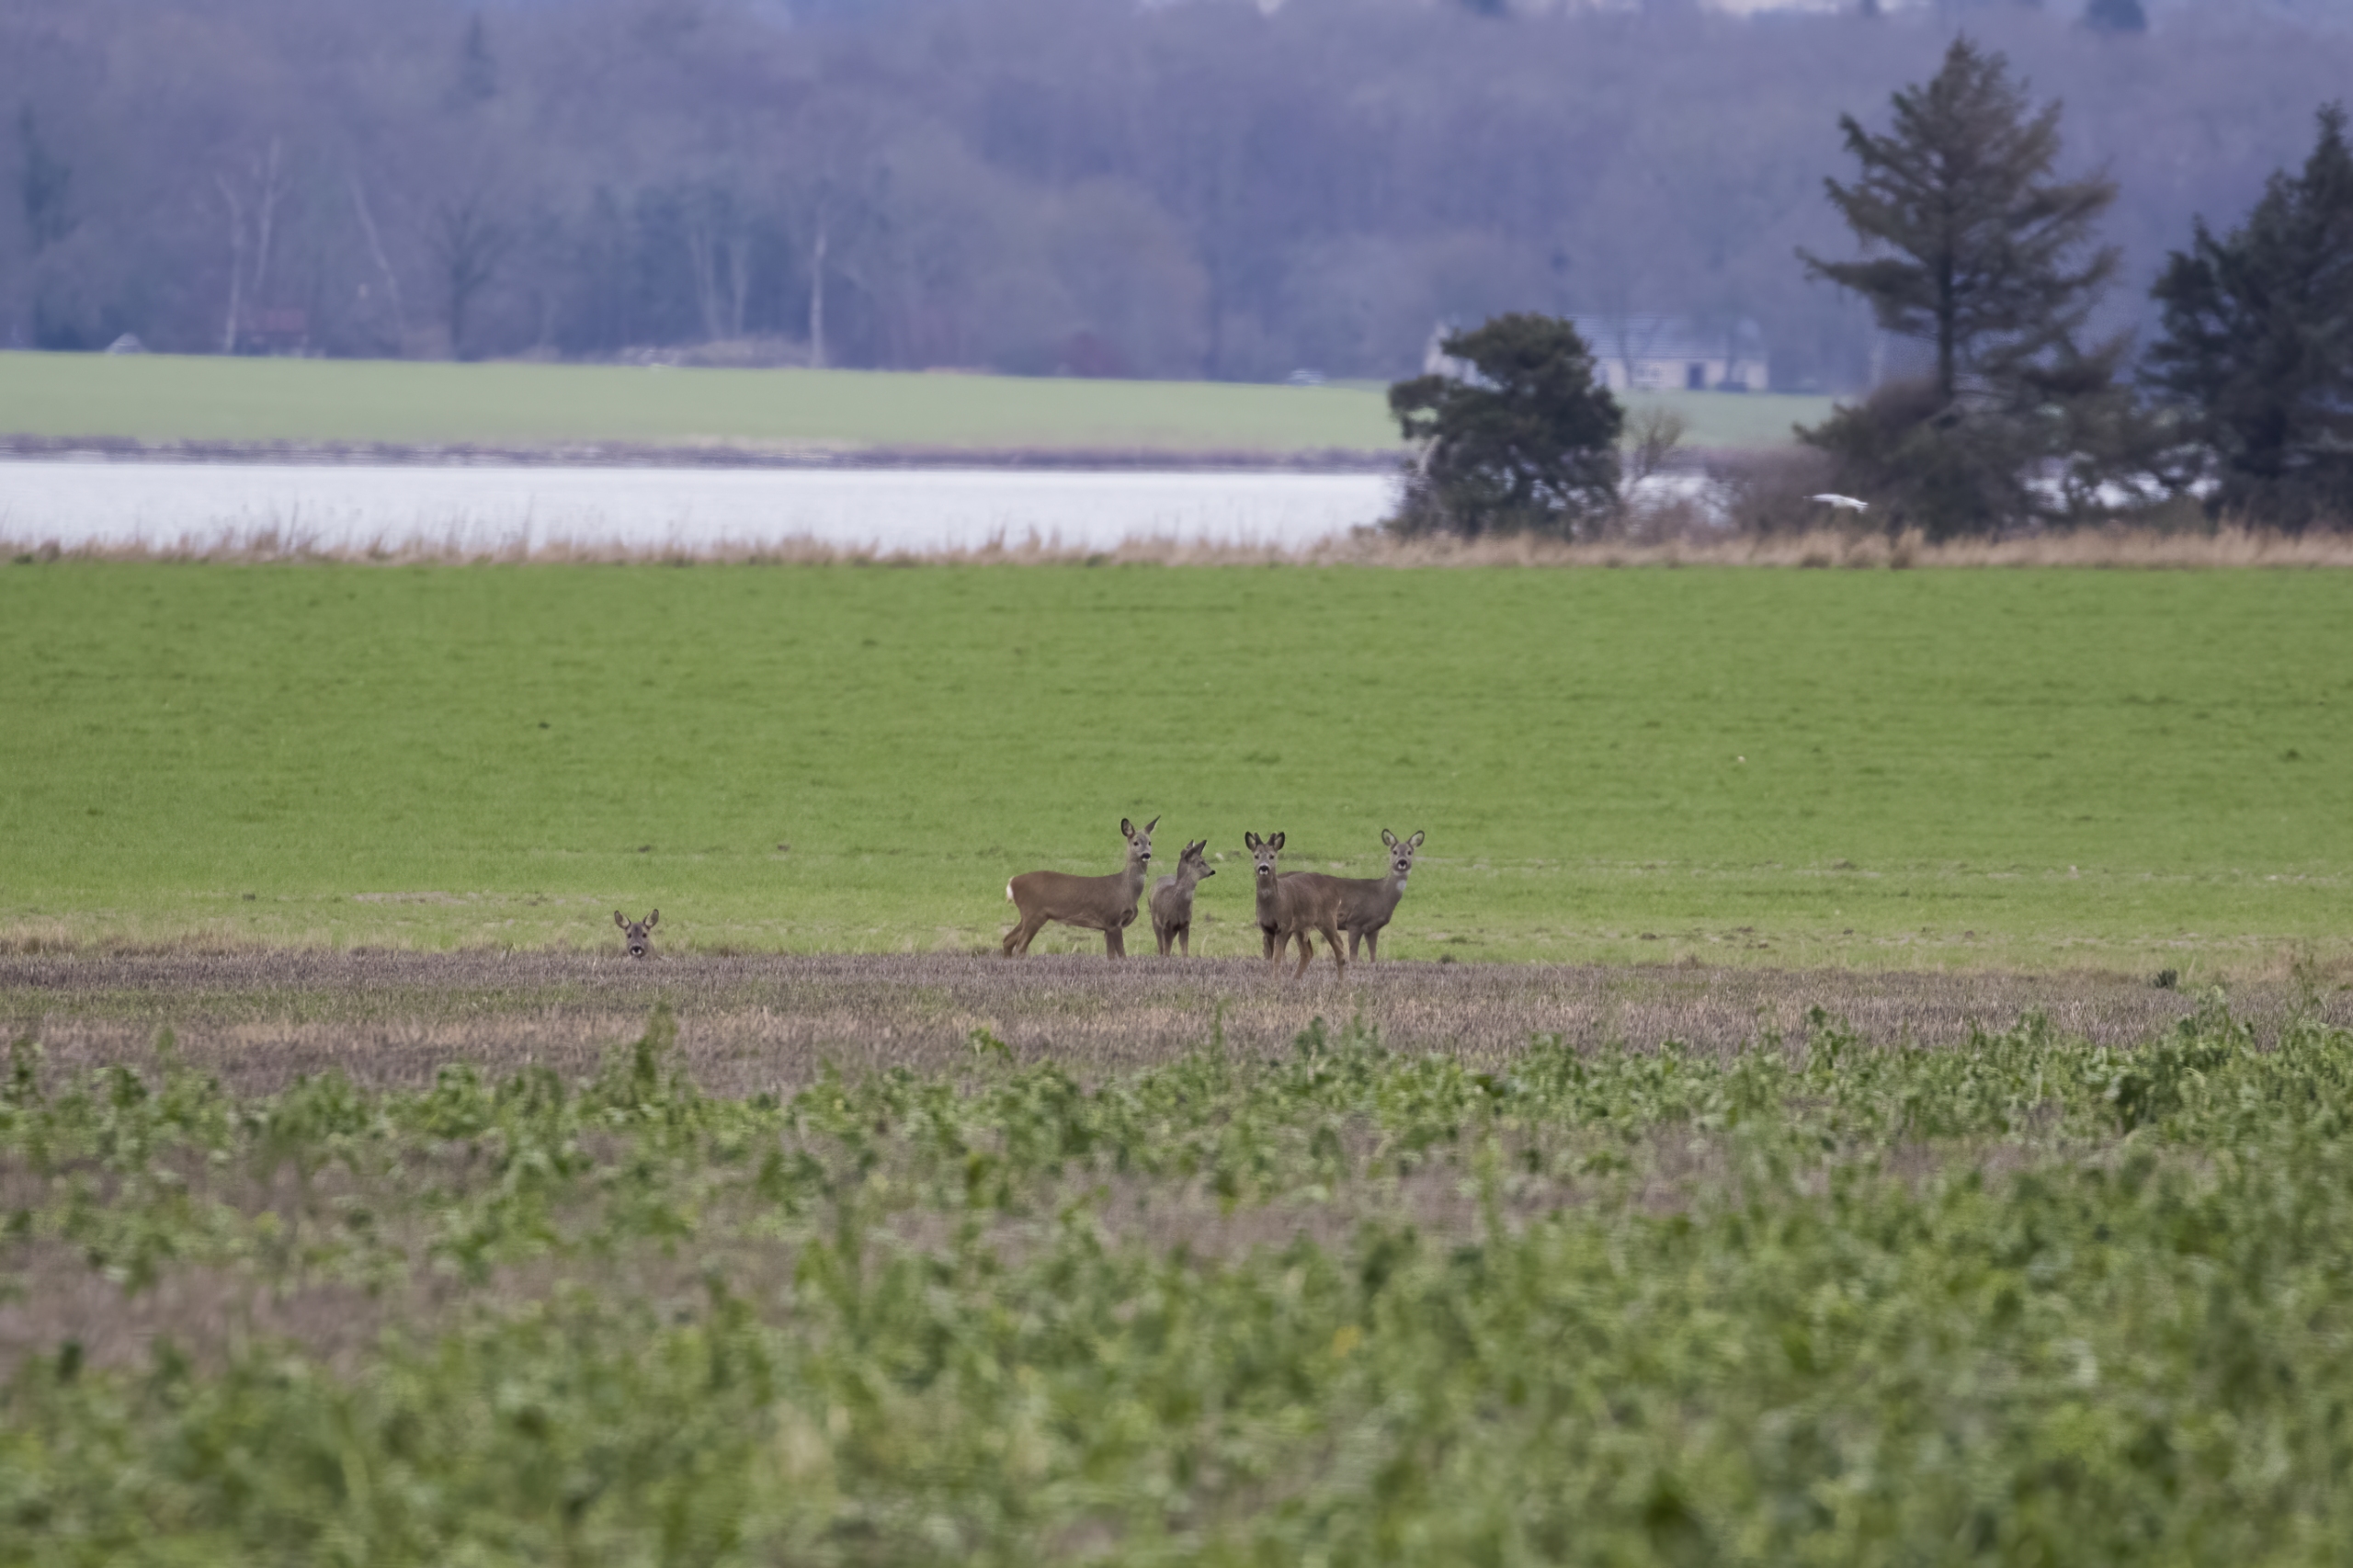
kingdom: Animalia
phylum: Chordata
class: Mammalia
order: Artiodactyla
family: Cervidae
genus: Capreolus
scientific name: Capreolus capreolus
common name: Rådyr
